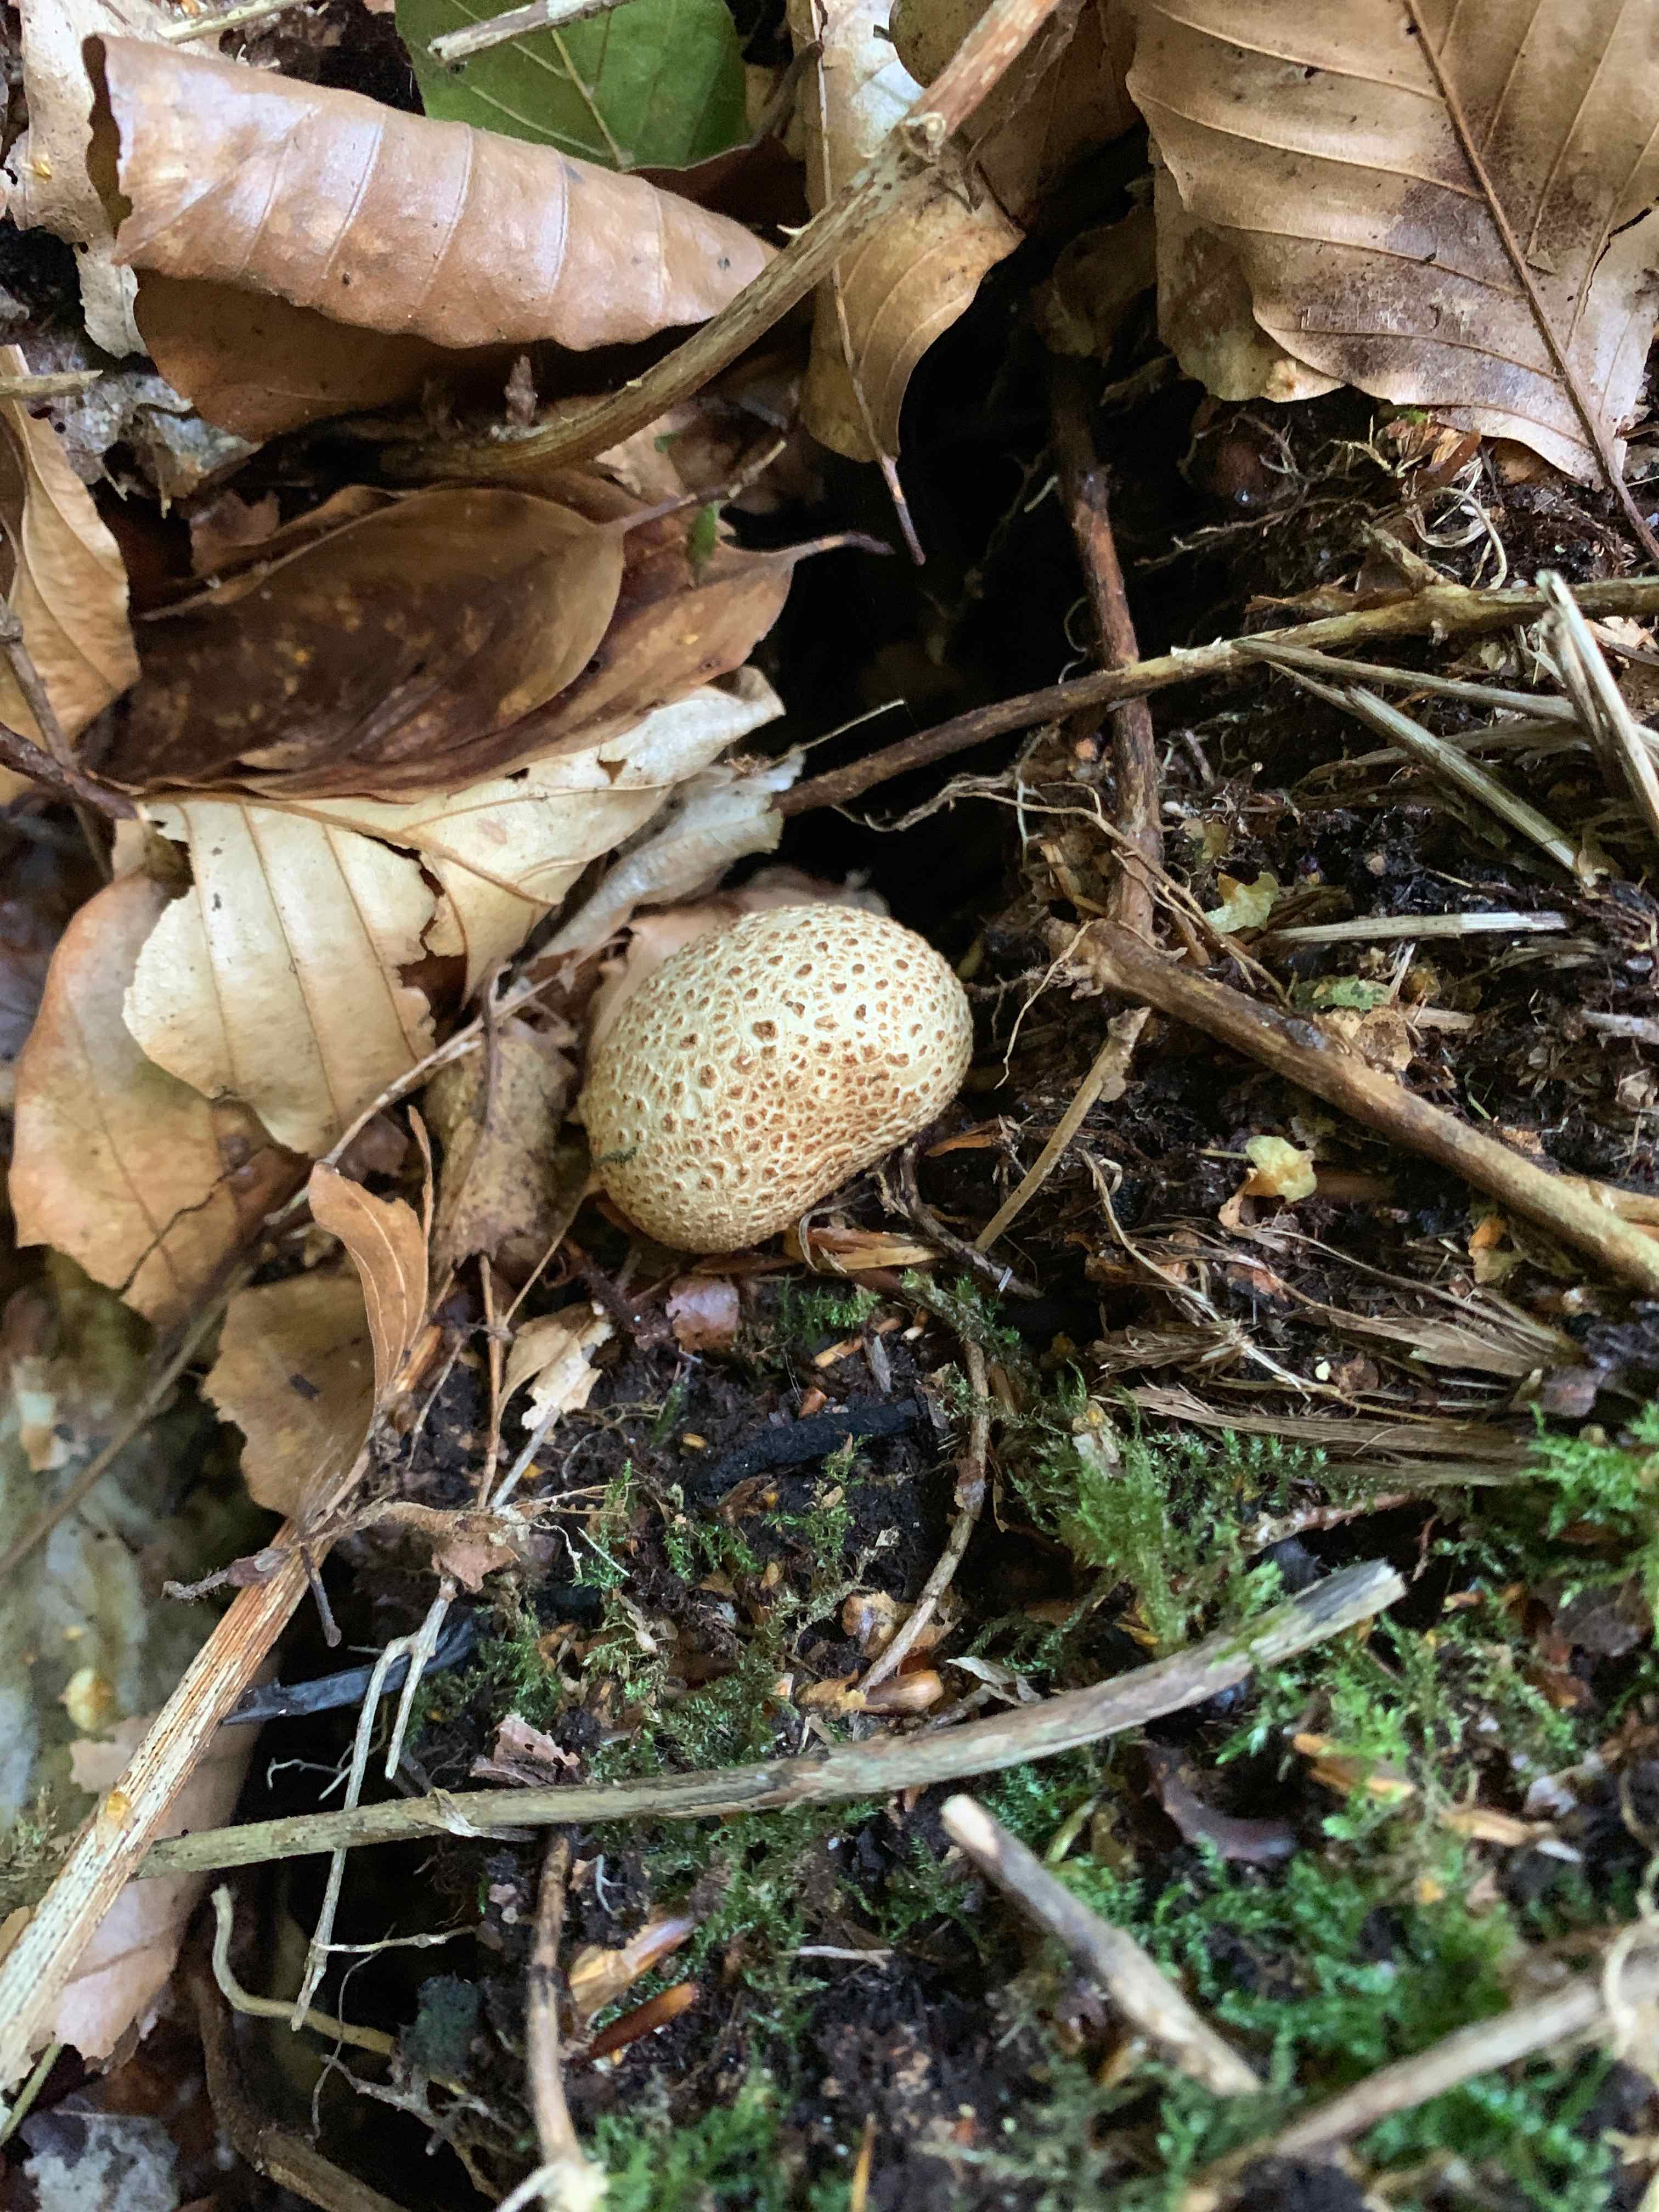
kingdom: Fungi
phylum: Basidiomycota
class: Agaricomycetes
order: Boletales
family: Sclerodermataceae
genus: Scleroderma
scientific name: Scleroderma citrinum
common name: almindelig bruskbold
